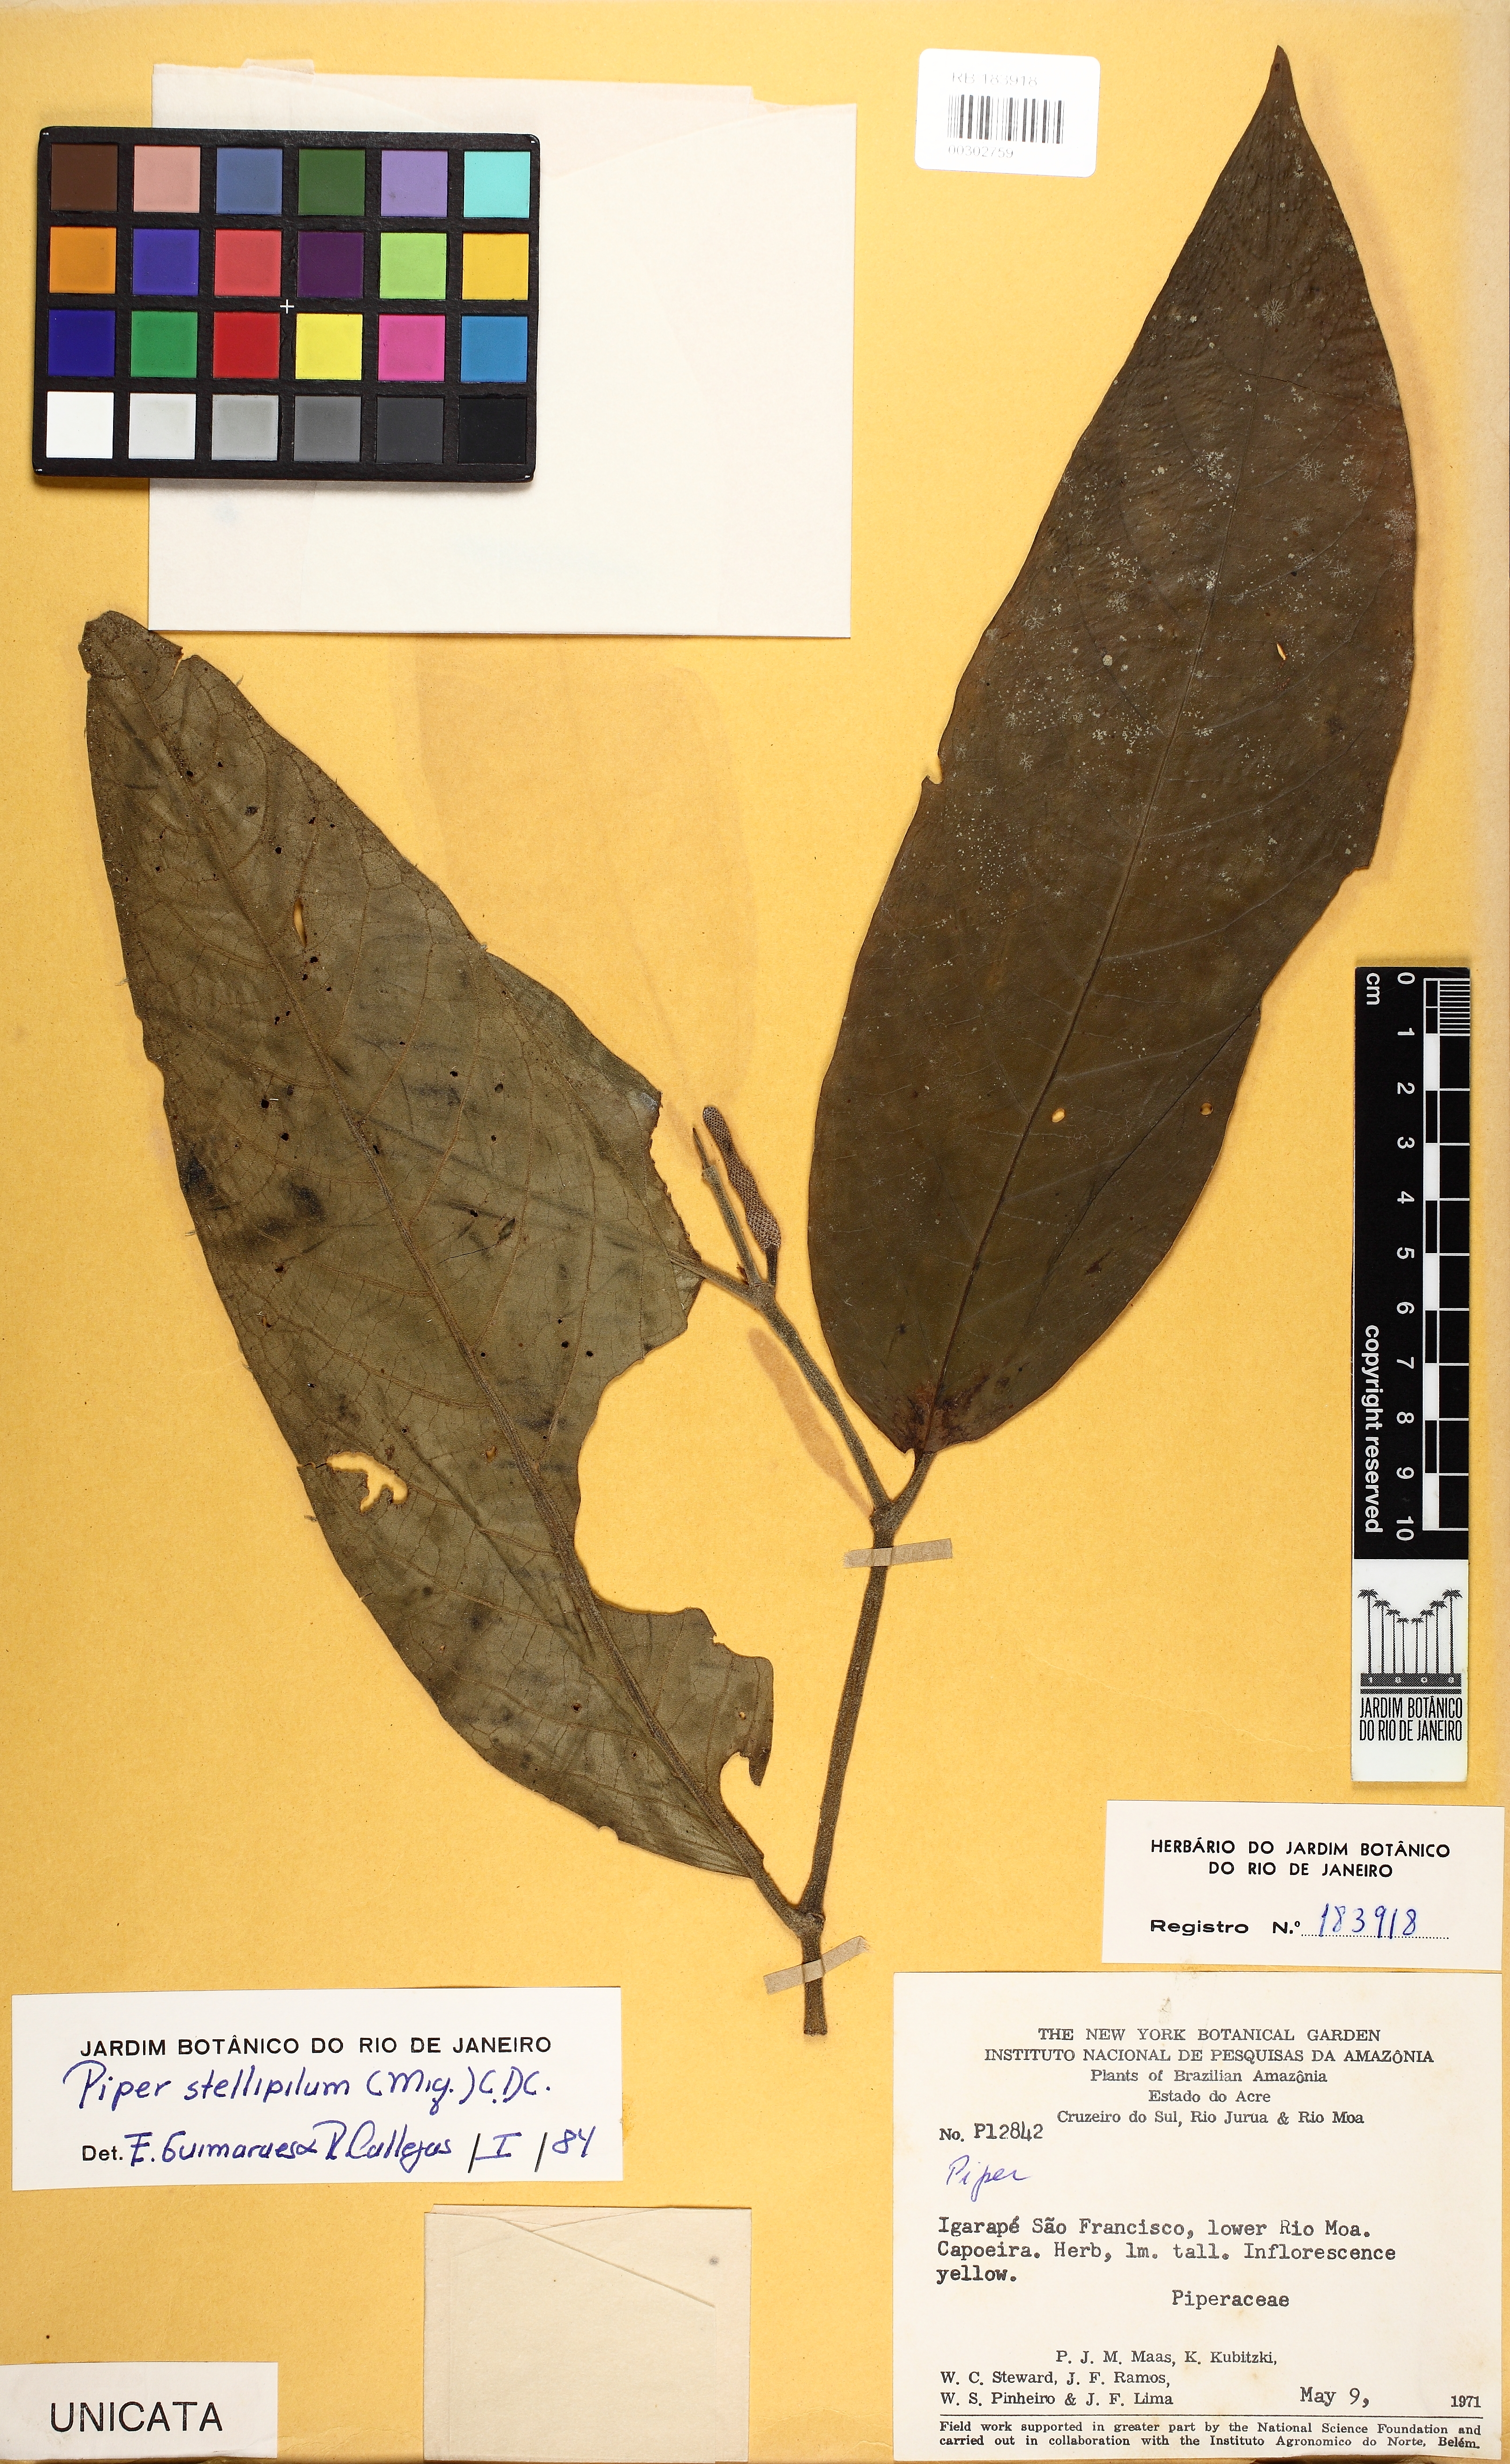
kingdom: Plantae
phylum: Tracheophyta
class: Magnoliopsida
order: Piperales
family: Piperaceae
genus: Piper
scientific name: Piper stellipilum
